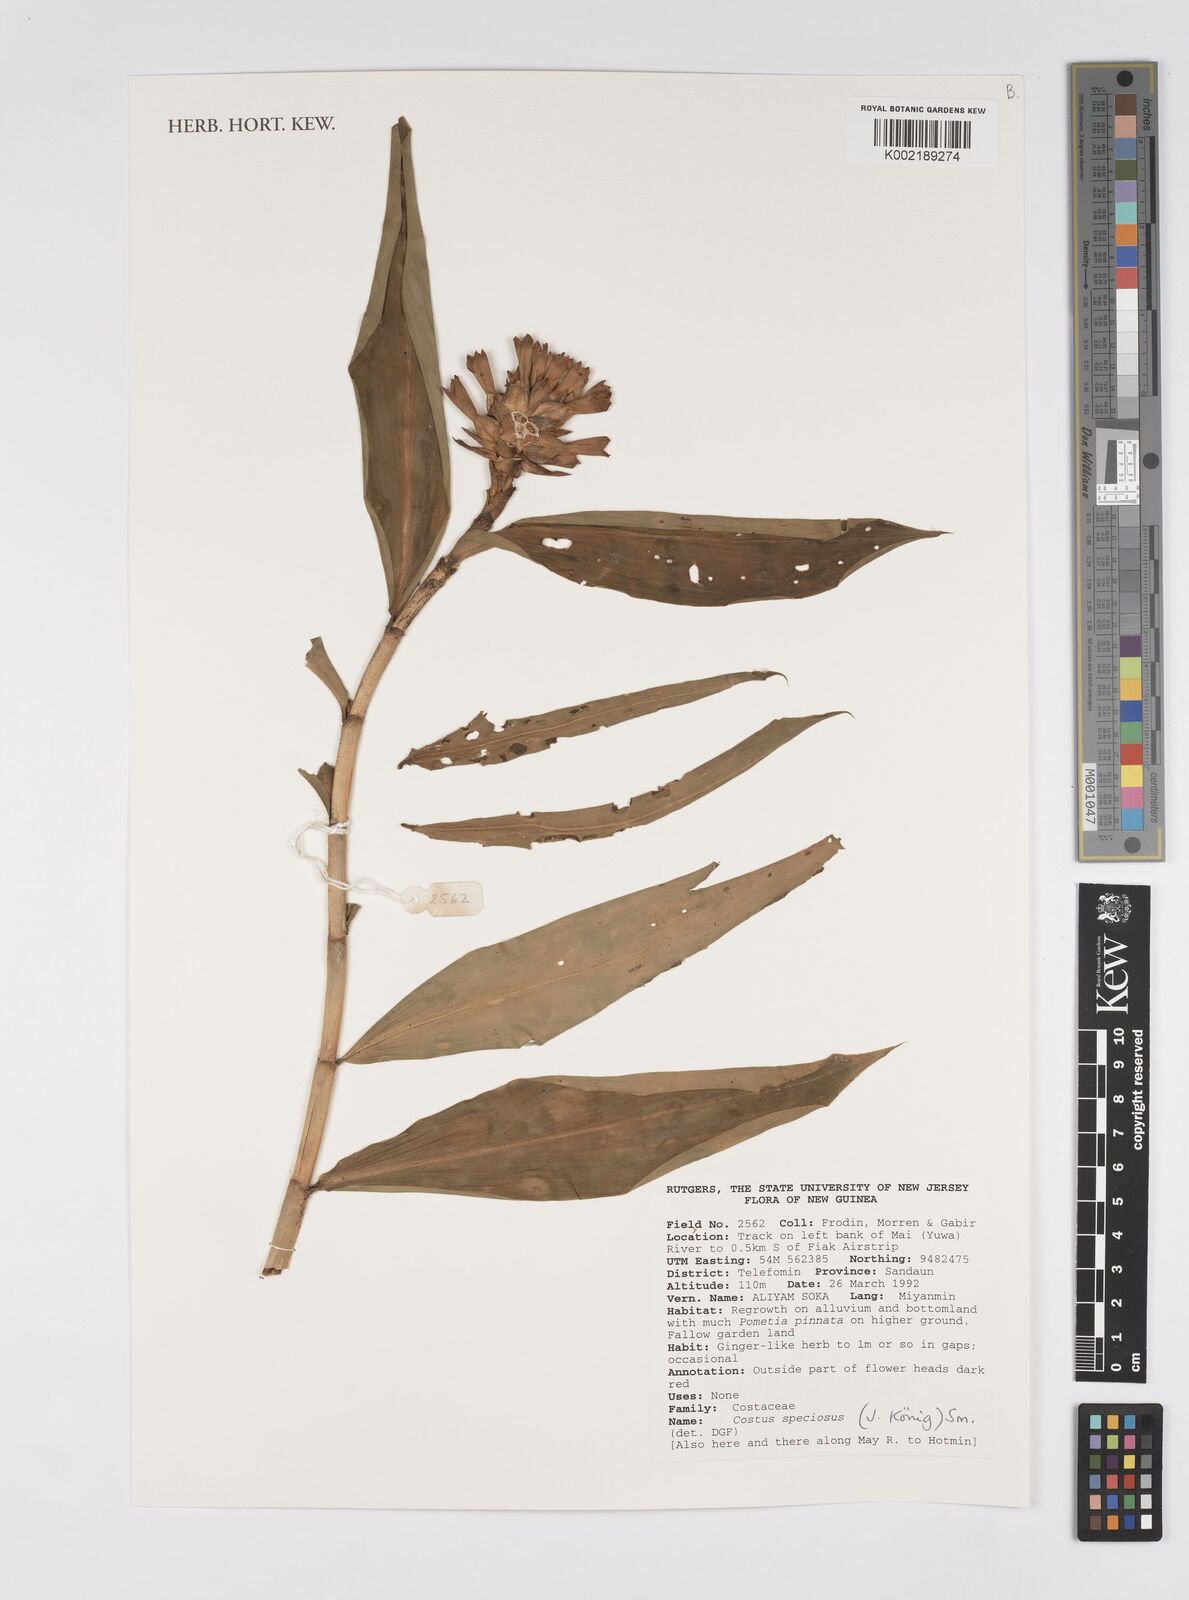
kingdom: Plantae
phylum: Tracheophyta
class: Liliopsida
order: Zingiberales
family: Costaceae
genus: Hellenia
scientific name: Hellenia speciosa
